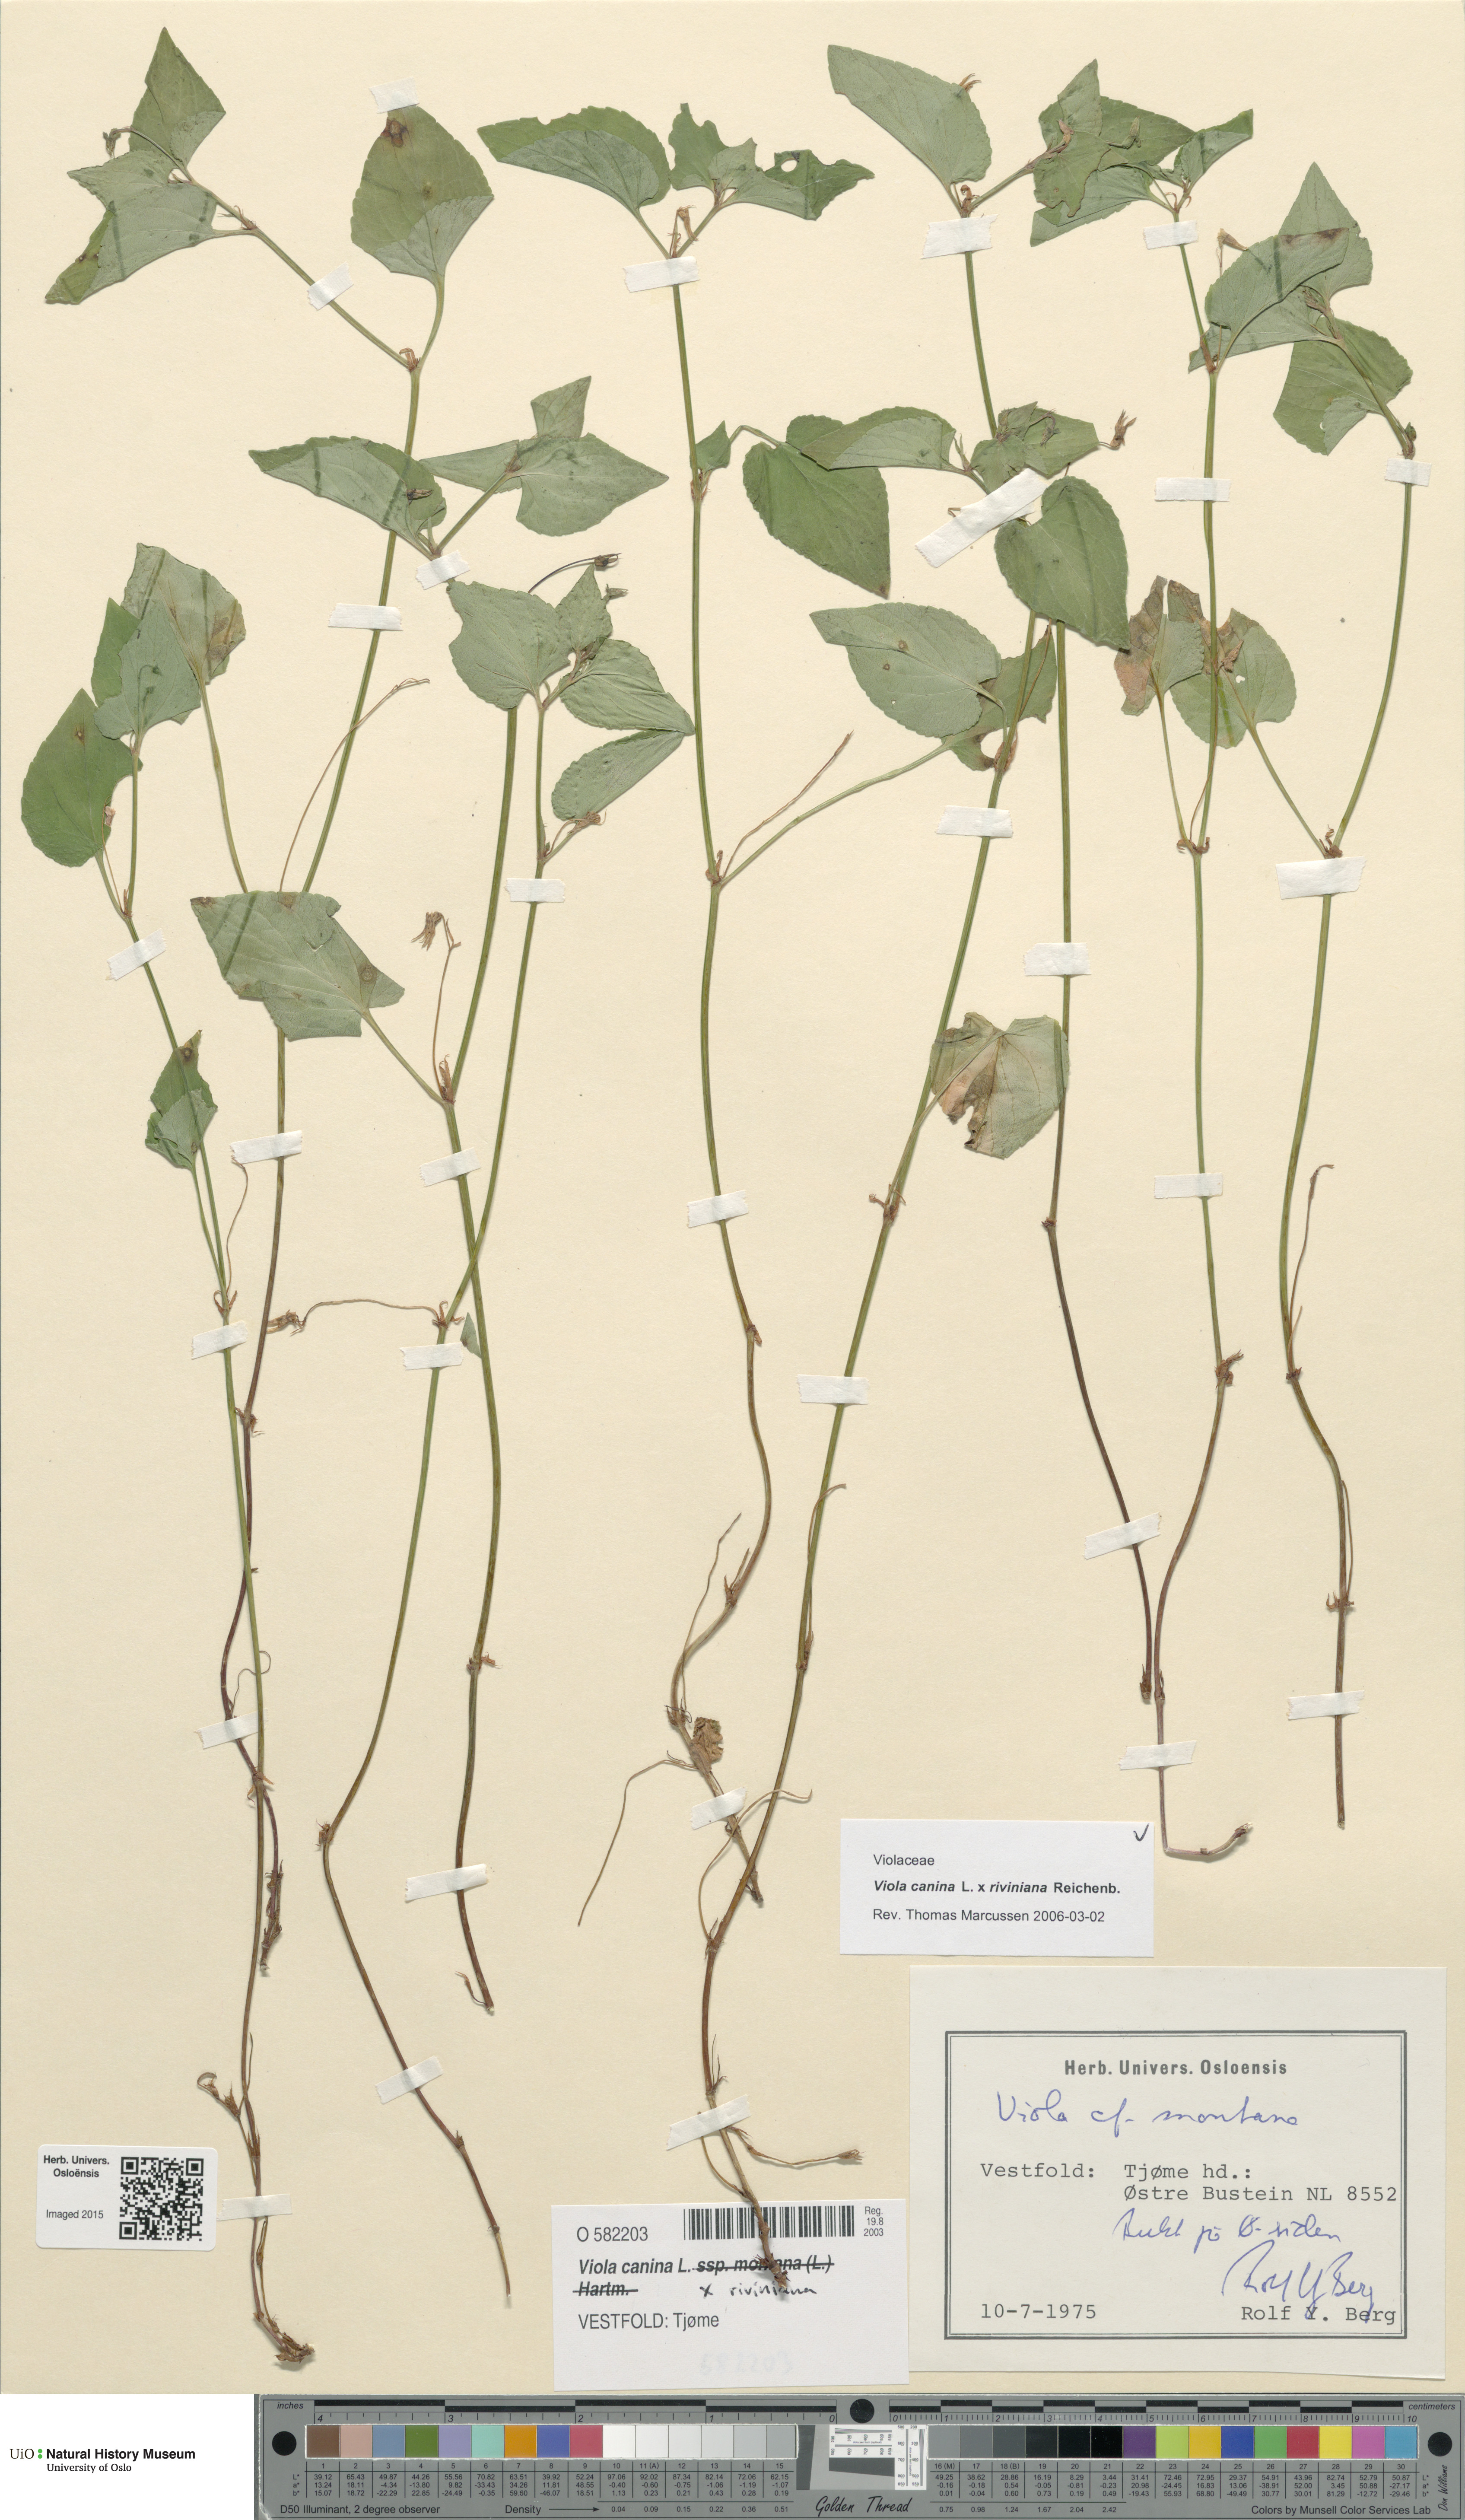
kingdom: Plantae
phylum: Tracheophyta
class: Magnoliopsida
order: Malpighiales
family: Violaceae
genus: Viola
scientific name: Viola
